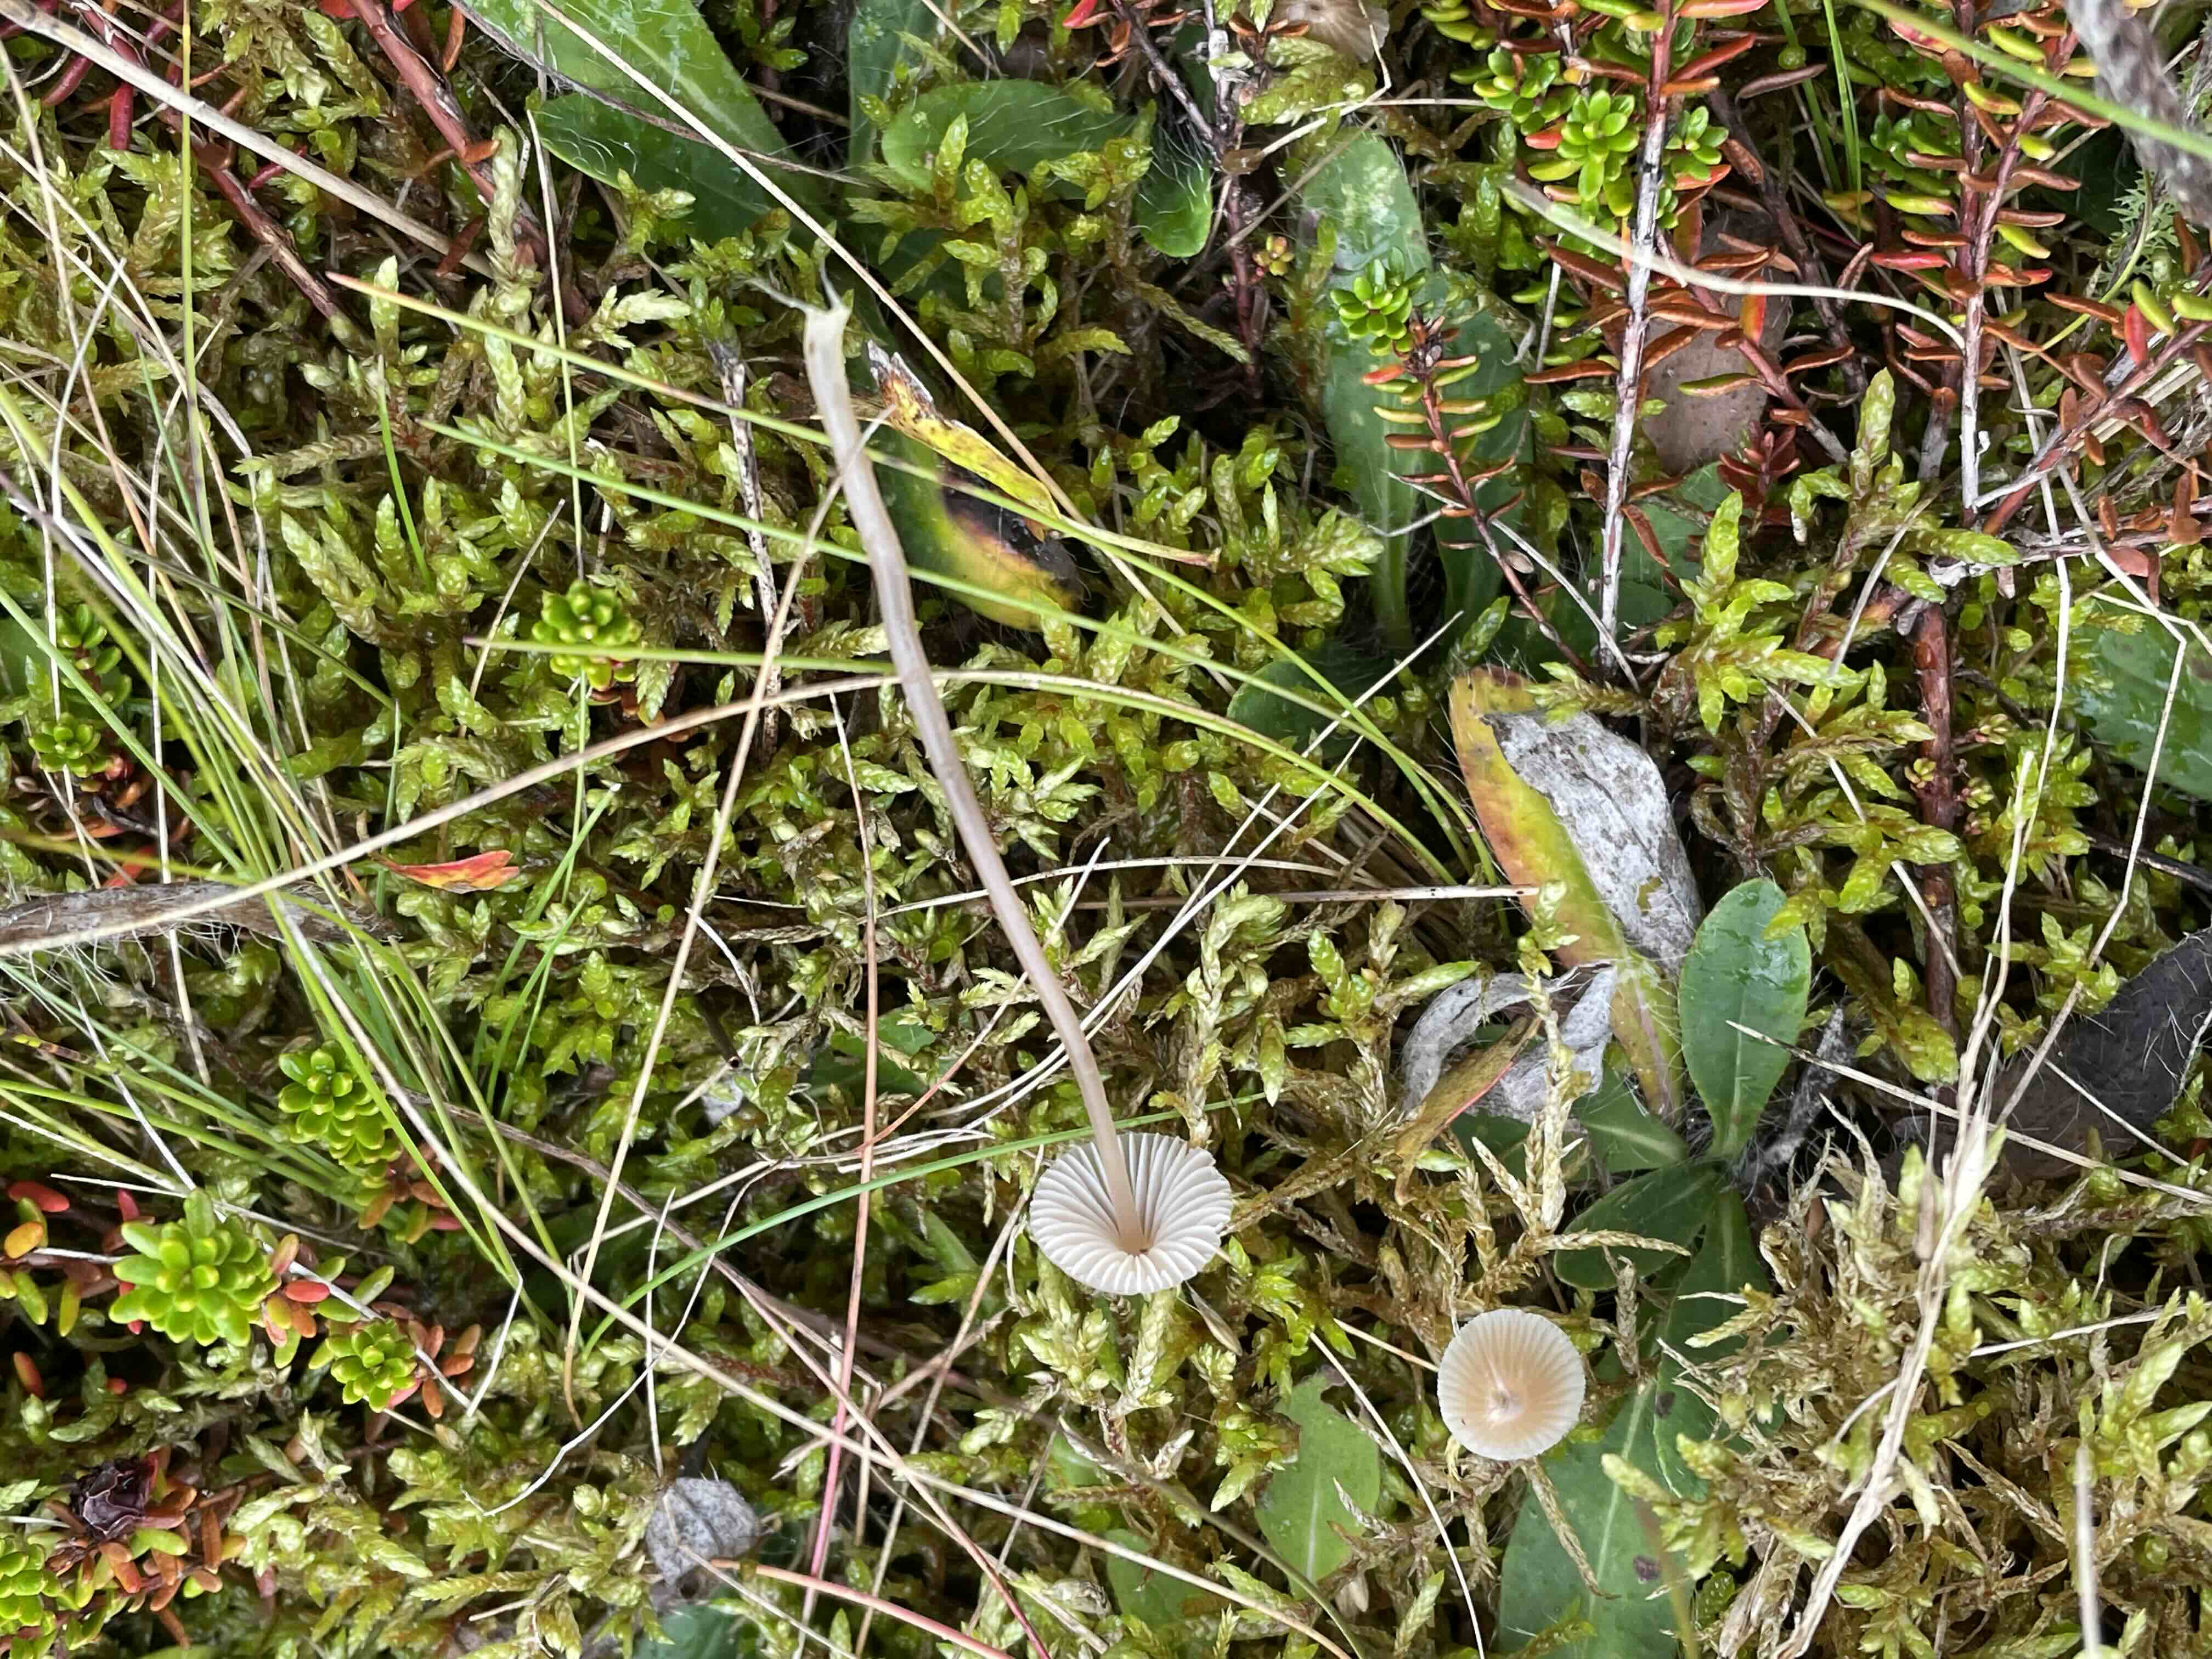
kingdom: Fungi
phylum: Basidiomycota
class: Agaricomycetes
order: Agaricales
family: Mycenaceae
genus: Mycena
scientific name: Mycena leptocephala
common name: klor-huesvamp
